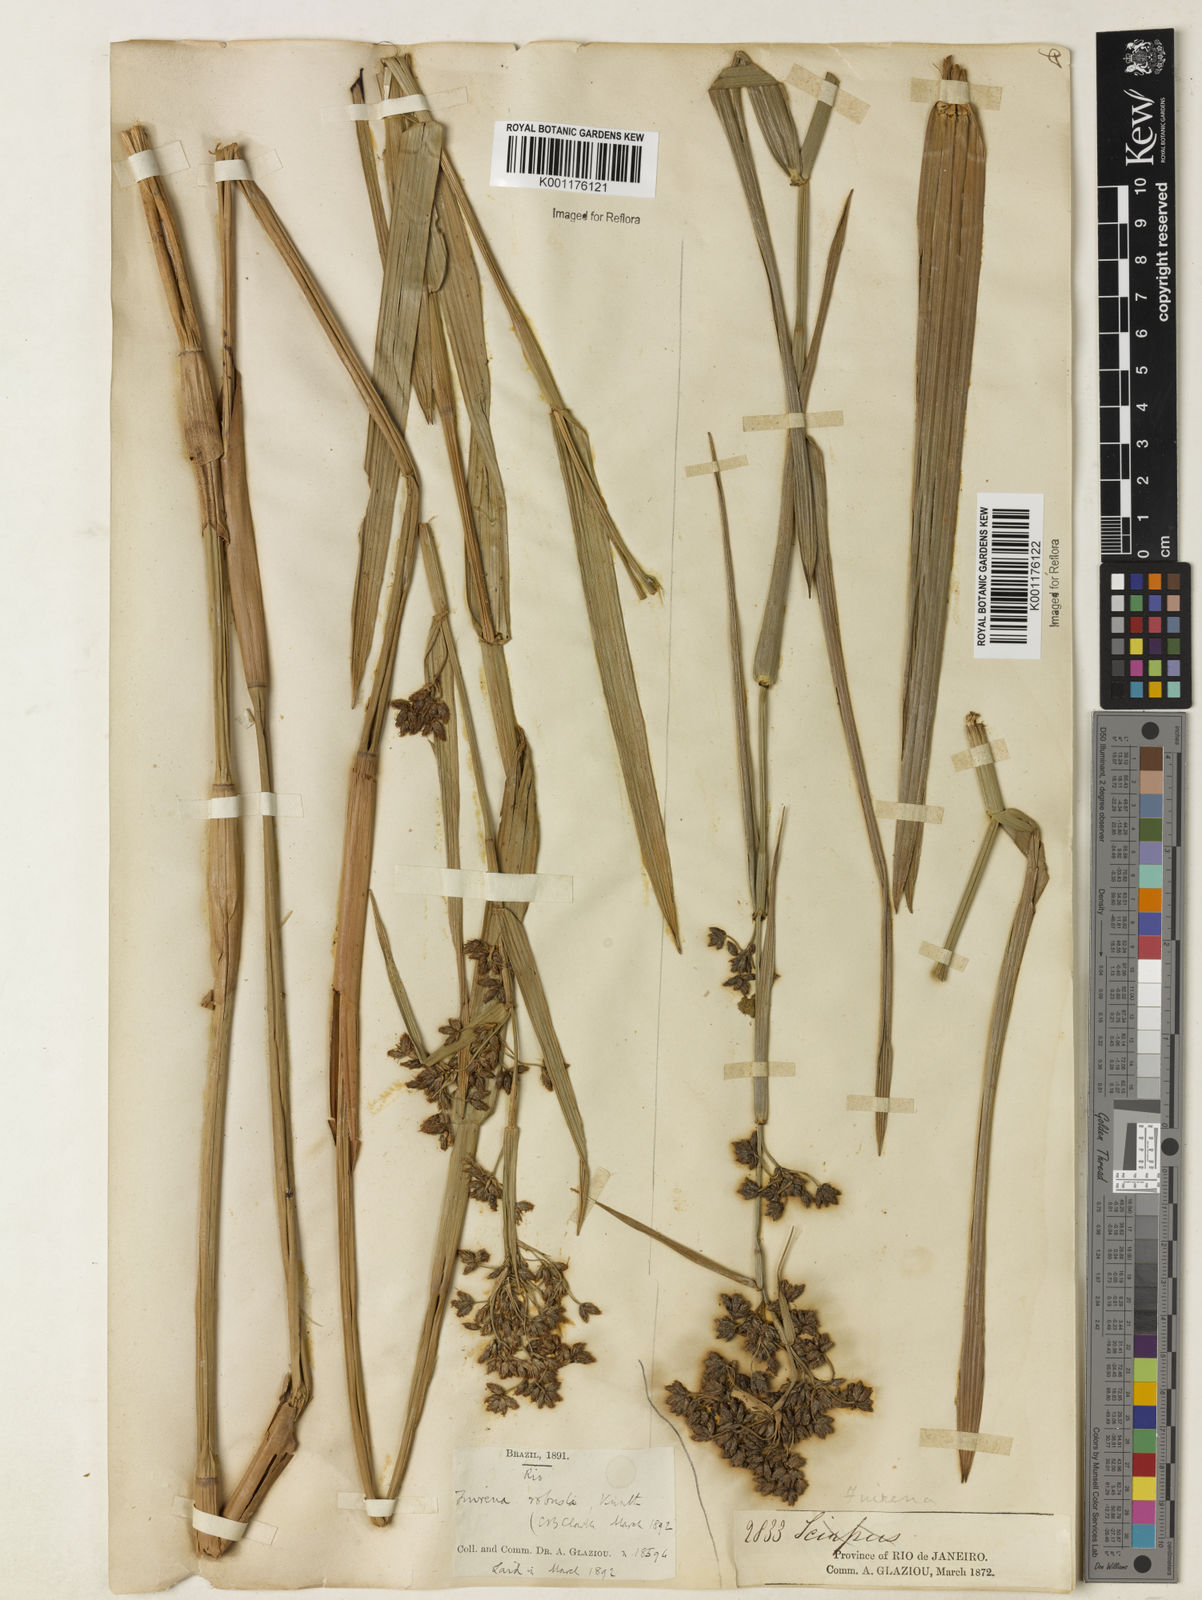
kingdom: Plantae
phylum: Tracheophyta
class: Liliopsida
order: Poales
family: Cyperaceae
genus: Fuirena
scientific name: Fuirena robusta
